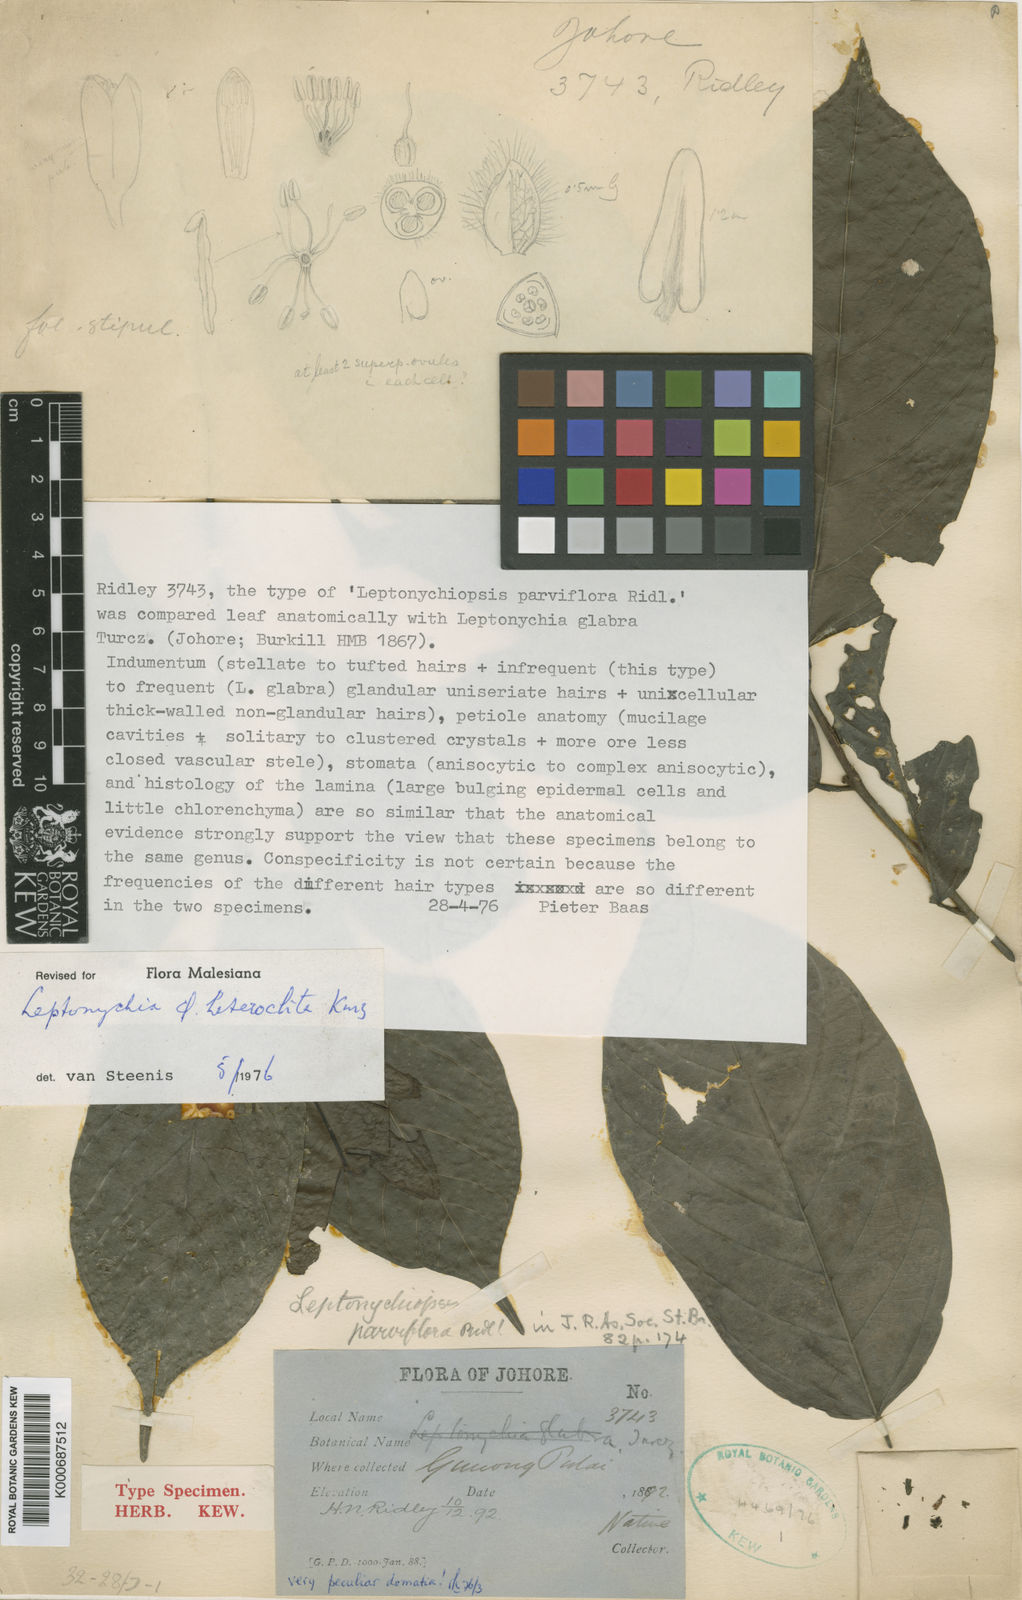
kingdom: Plantae
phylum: Tracheophyta
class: Magnoliopsida
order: Malvales
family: Malvaceae
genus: Leptonychia
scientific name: Leptonychia
